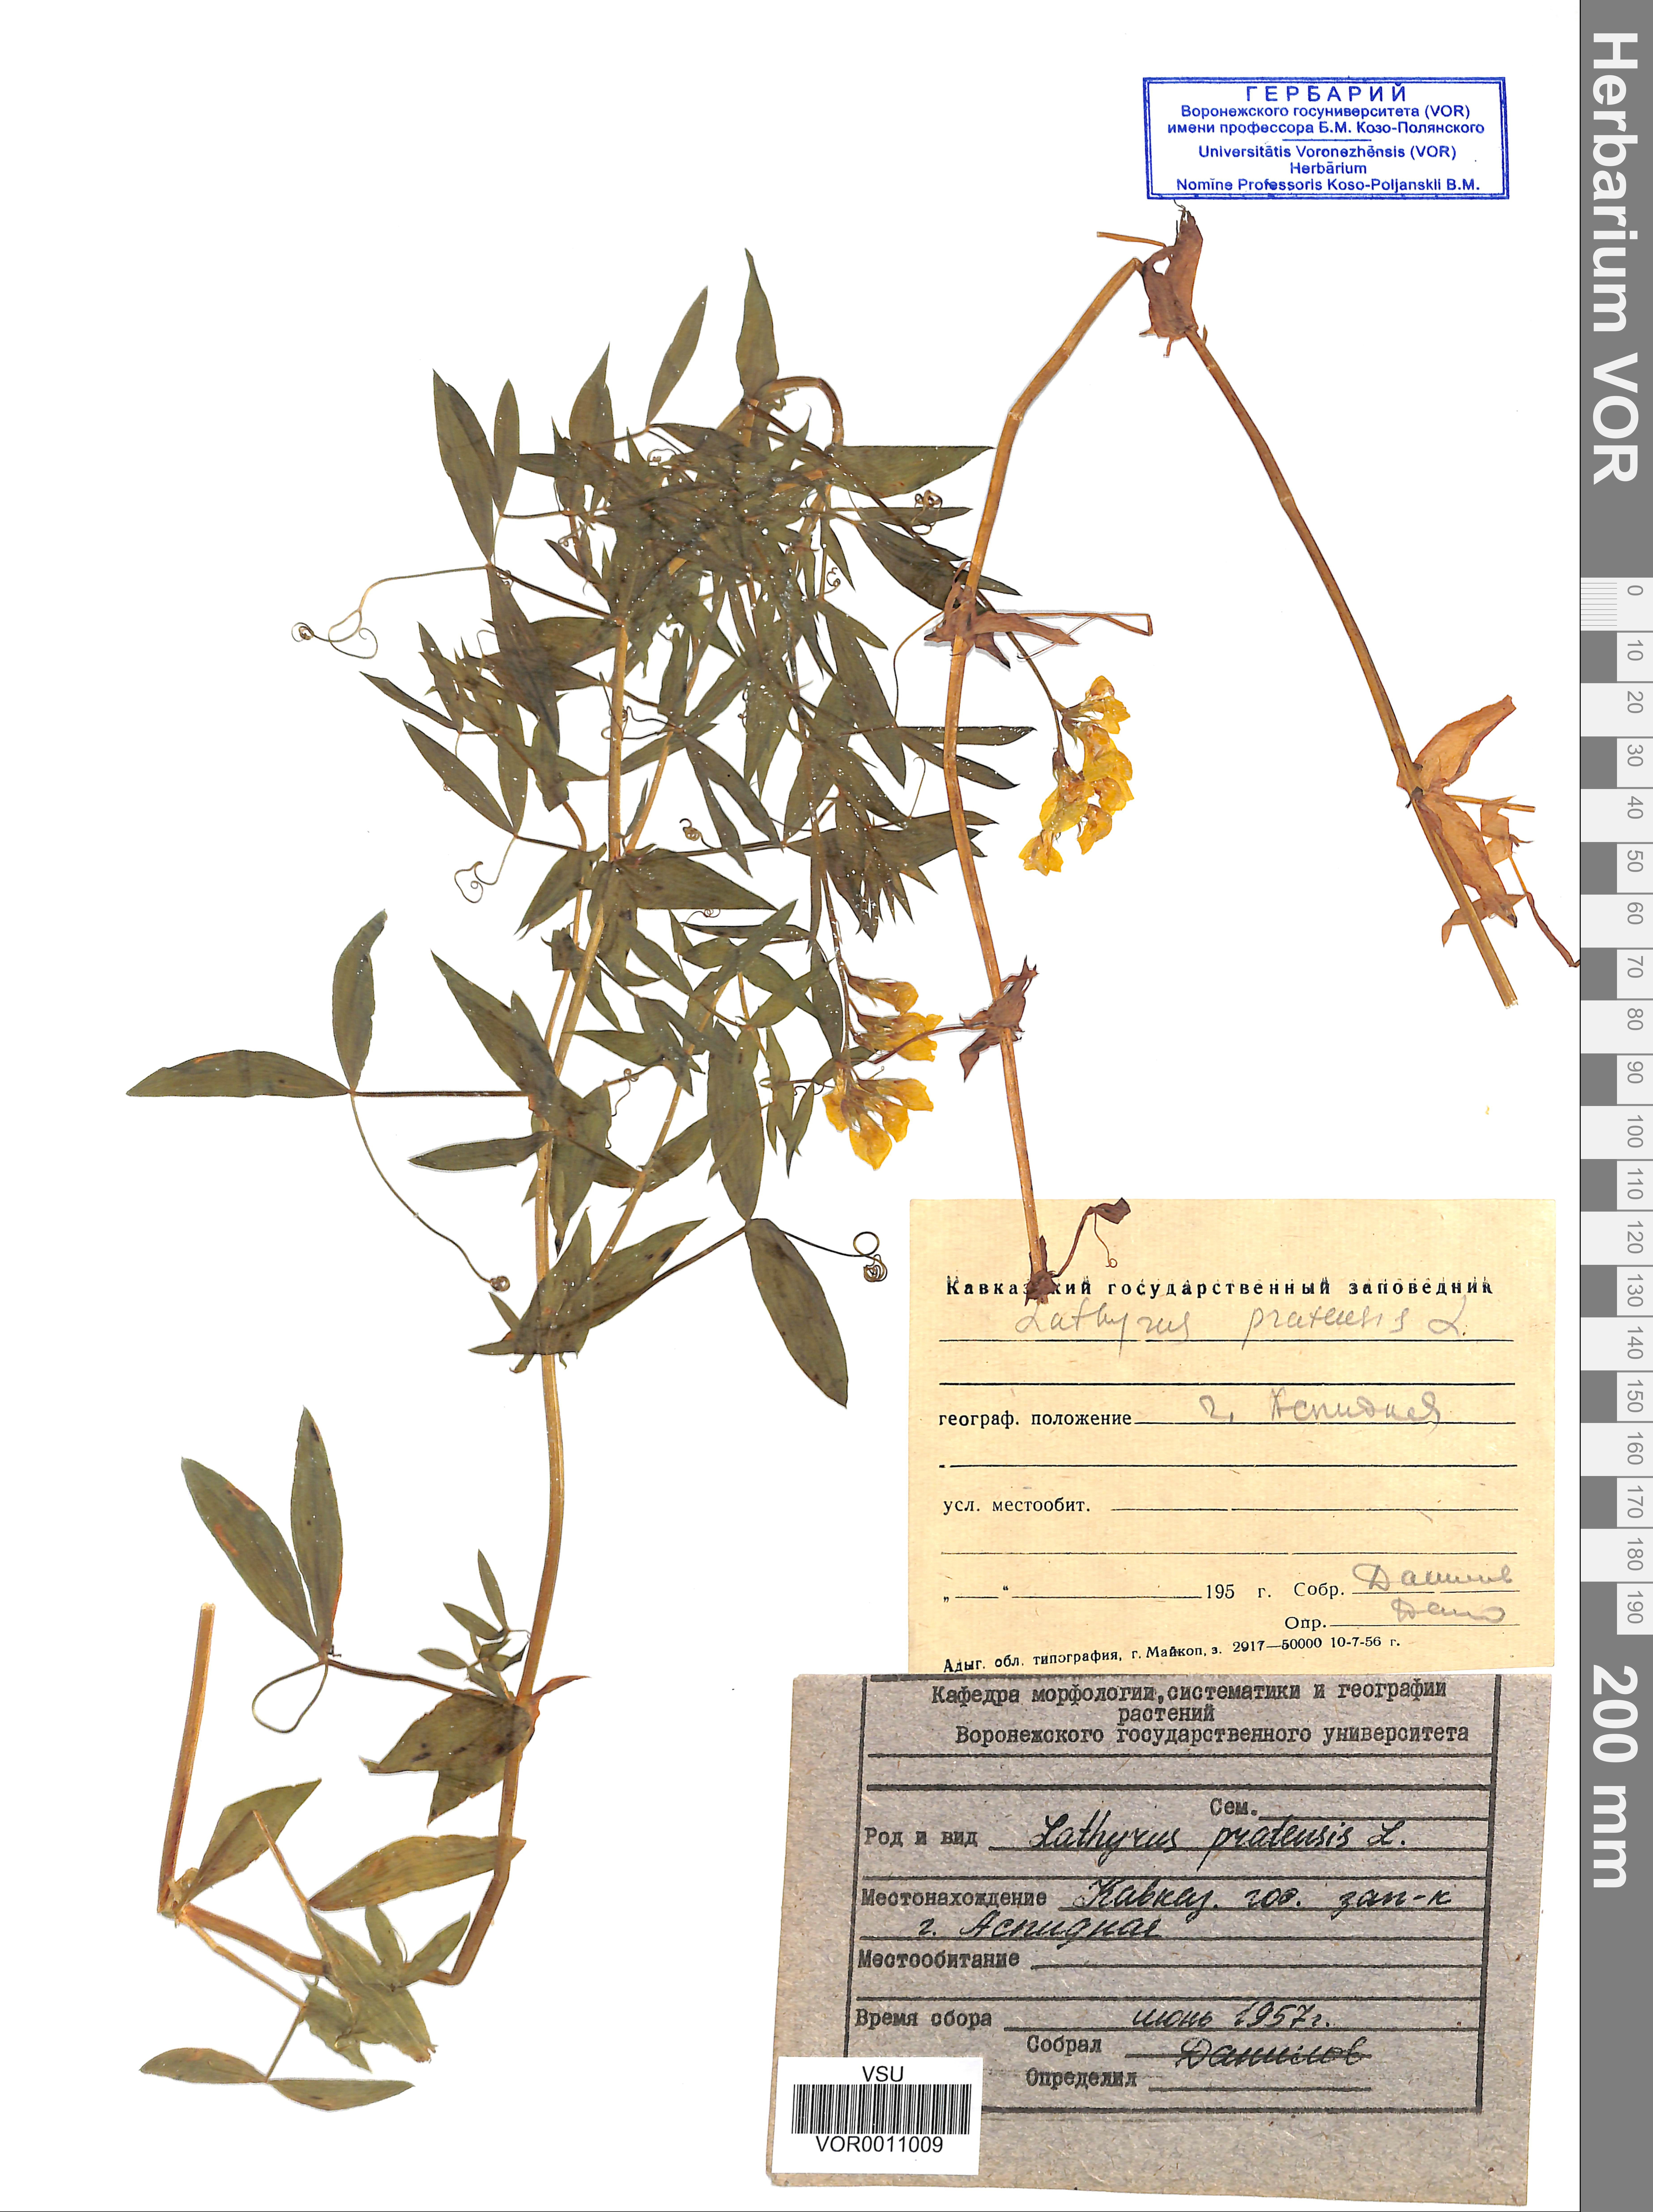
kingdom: Plantae
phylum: Tracheophyta
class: Magnoliopsida
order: Fabales
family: Fabaceae
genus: Lathyrus
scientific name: Lathyrus pratensis
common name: Meadow vetchling
